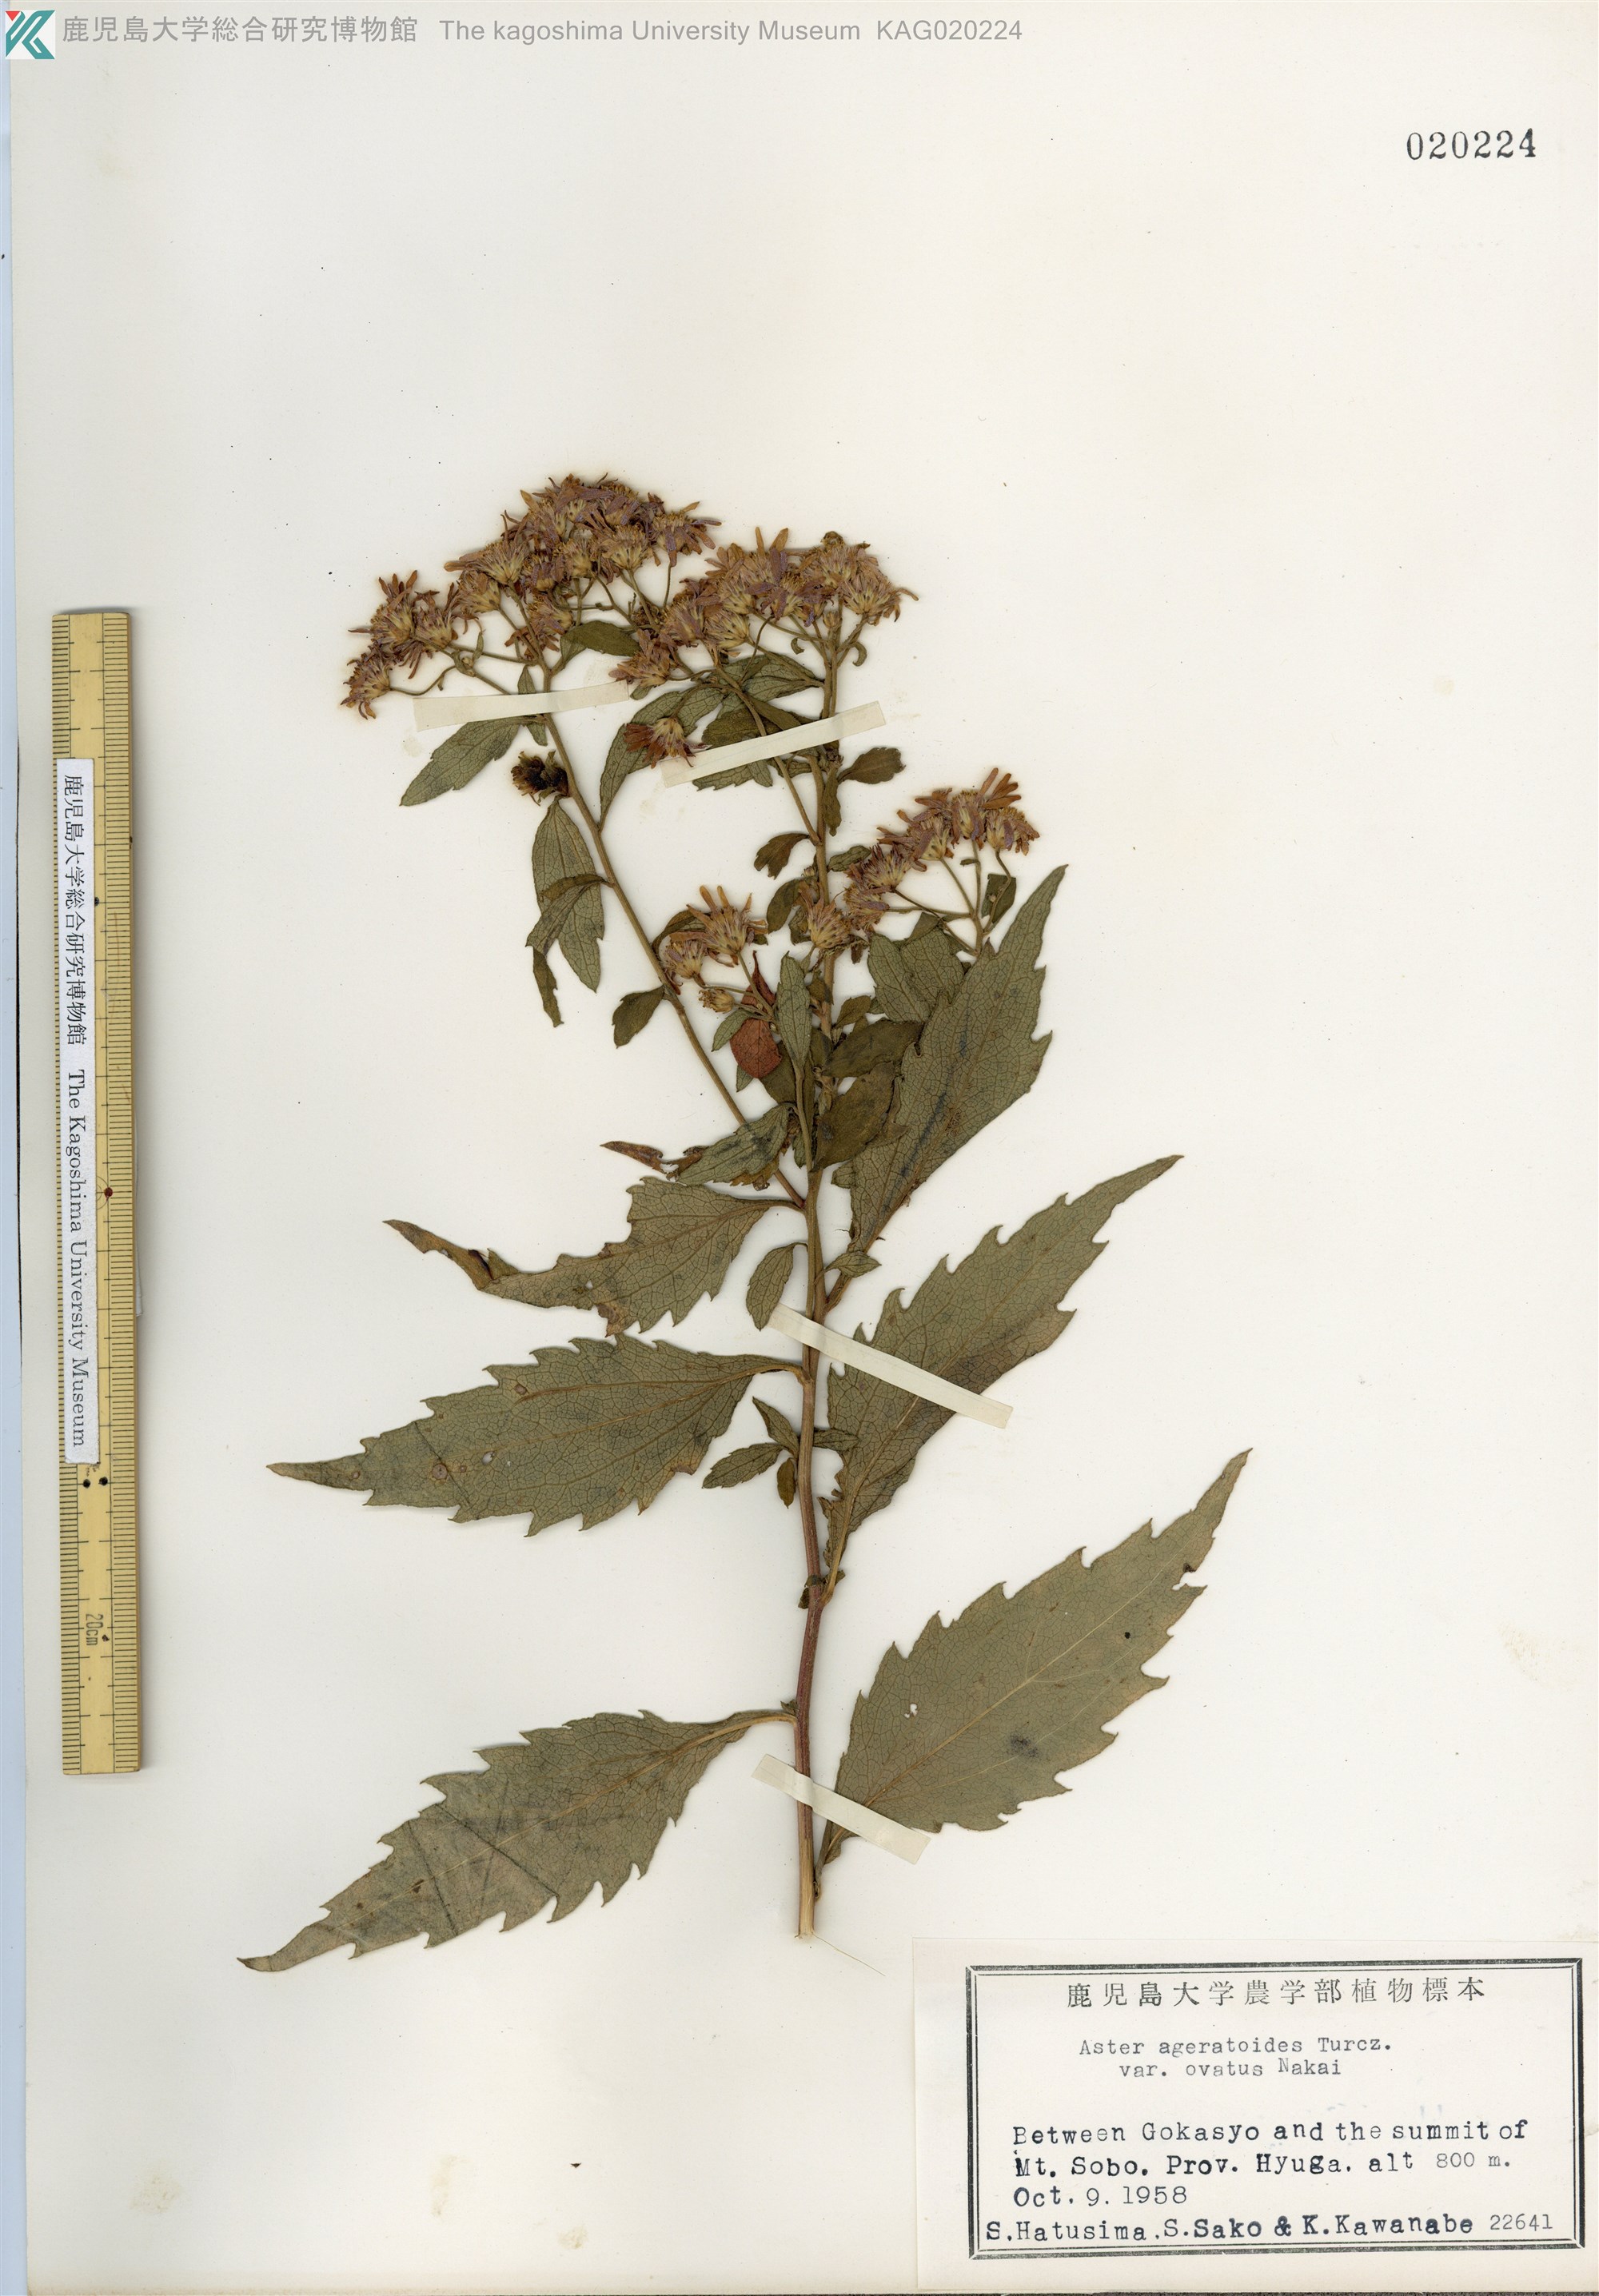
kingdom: Plantae
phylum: Tracheophyta
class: Magnoliopsida
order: Asterales
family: Asteraceae
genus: Aster
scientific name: Aster microcephalus
